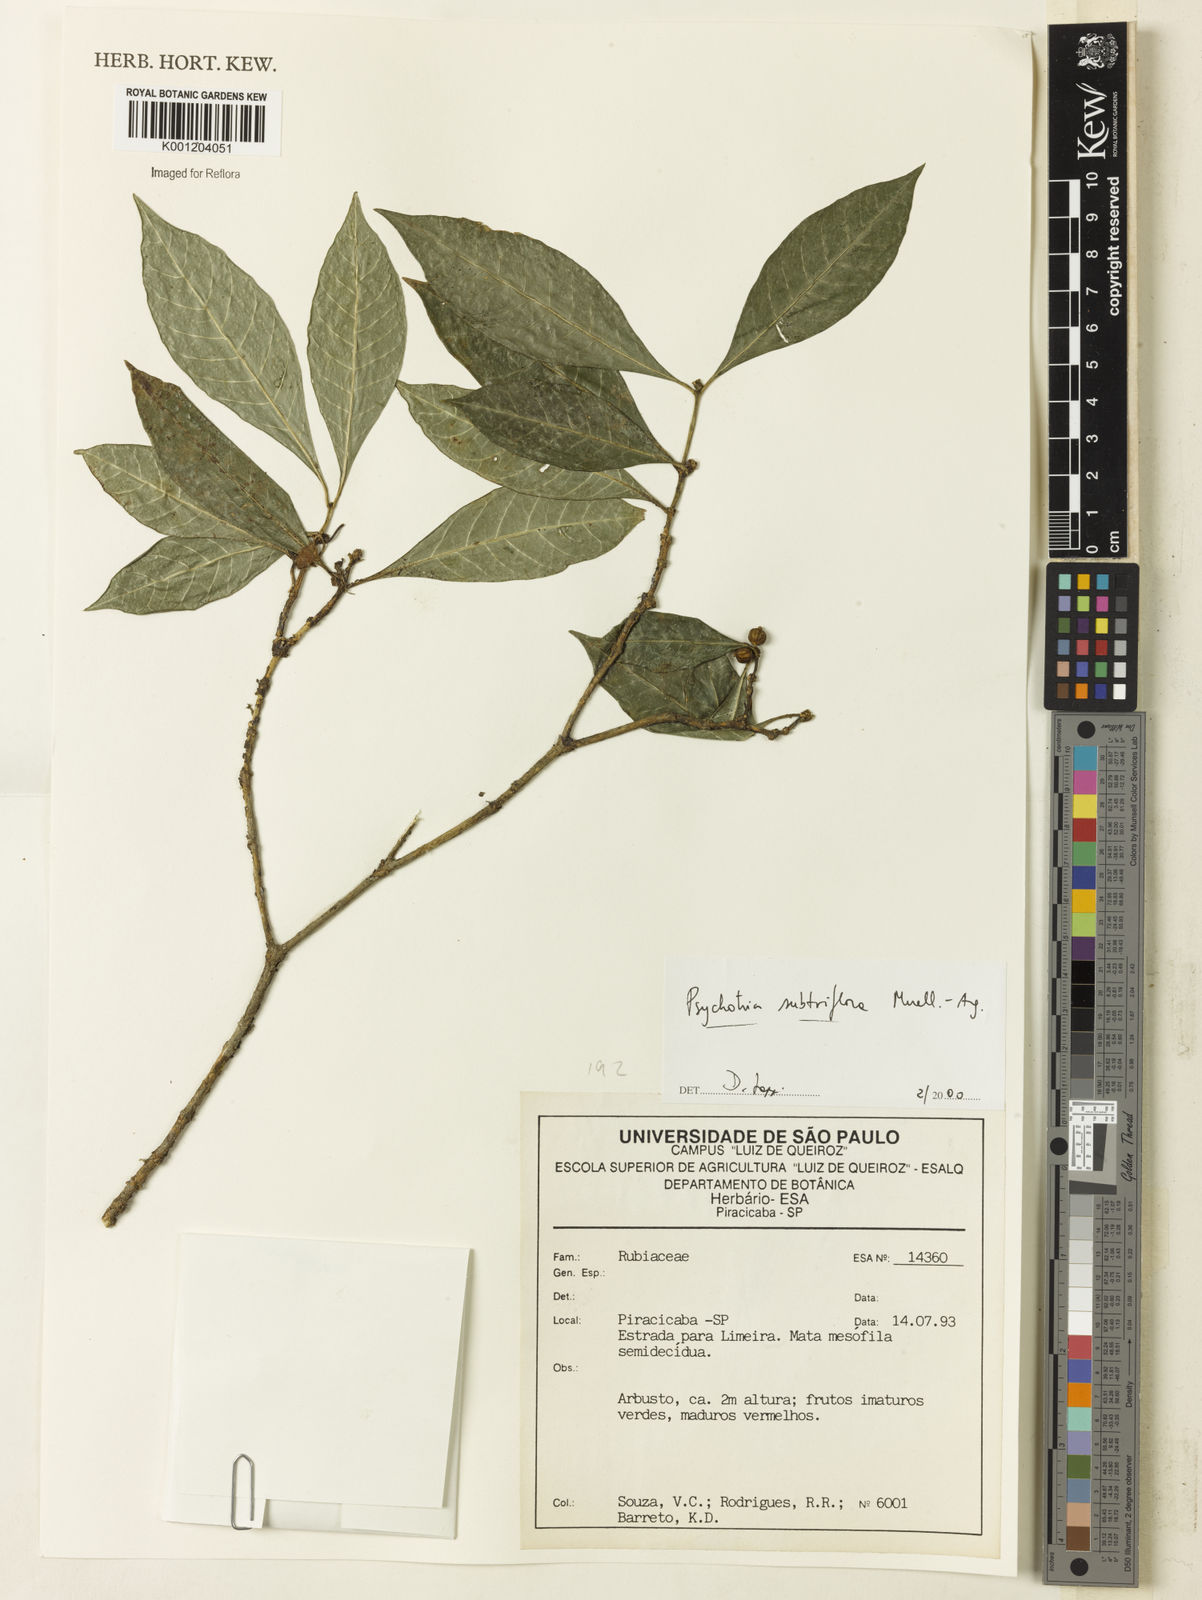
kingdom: Plantae
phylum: Tracheophyta
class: Magnoliopsida
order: Gentianales
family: Rubiaceae
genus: Eumachia
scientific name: Eumachia
